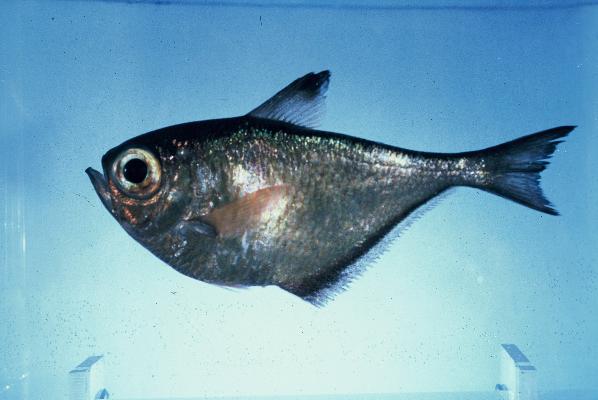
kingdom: Animalia
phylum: Chordata
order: Perciformes
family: Pempheridae
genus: Pempheris
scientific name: Pempheris schwenkii
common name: Silver bullseye
